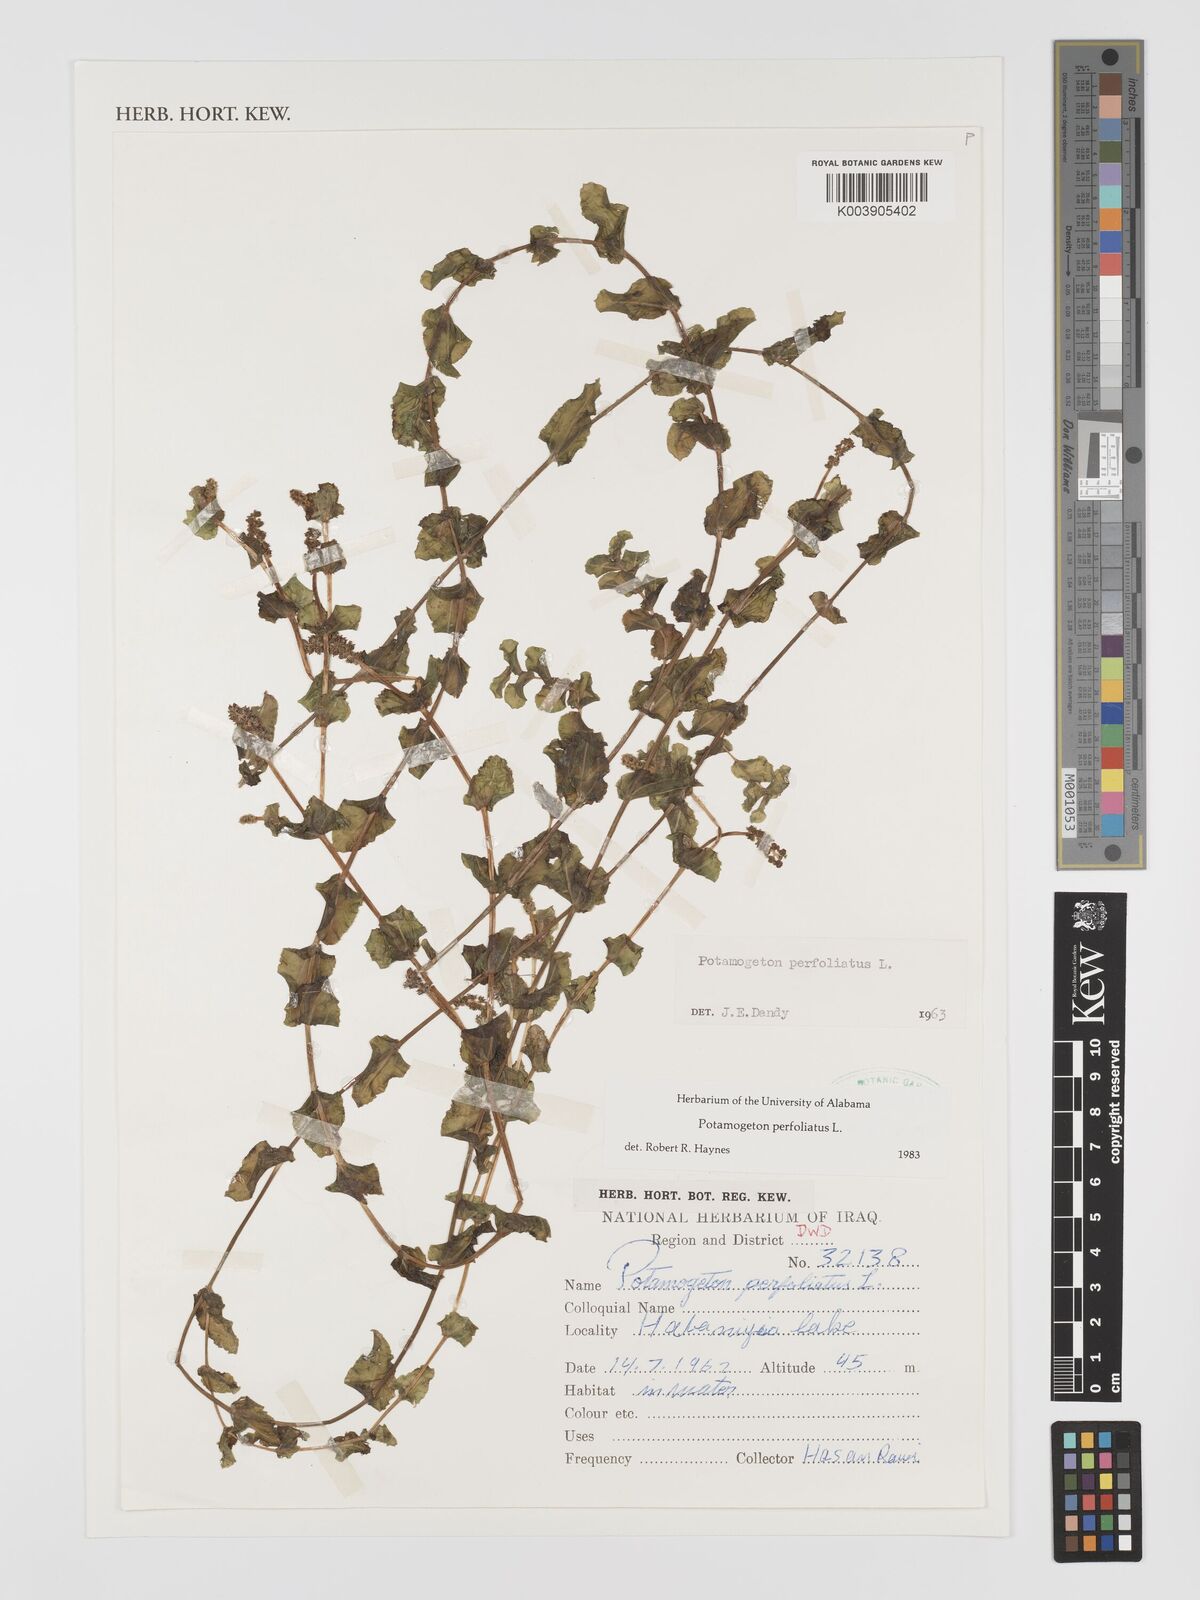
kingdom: Plantae
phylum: Tracheophyta
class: Liliopsida
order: Alismatales
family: Potamogetonaceae
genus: Potamogeton
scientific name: Potamogeton perfoliatus
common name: Perfoliate pondweed
